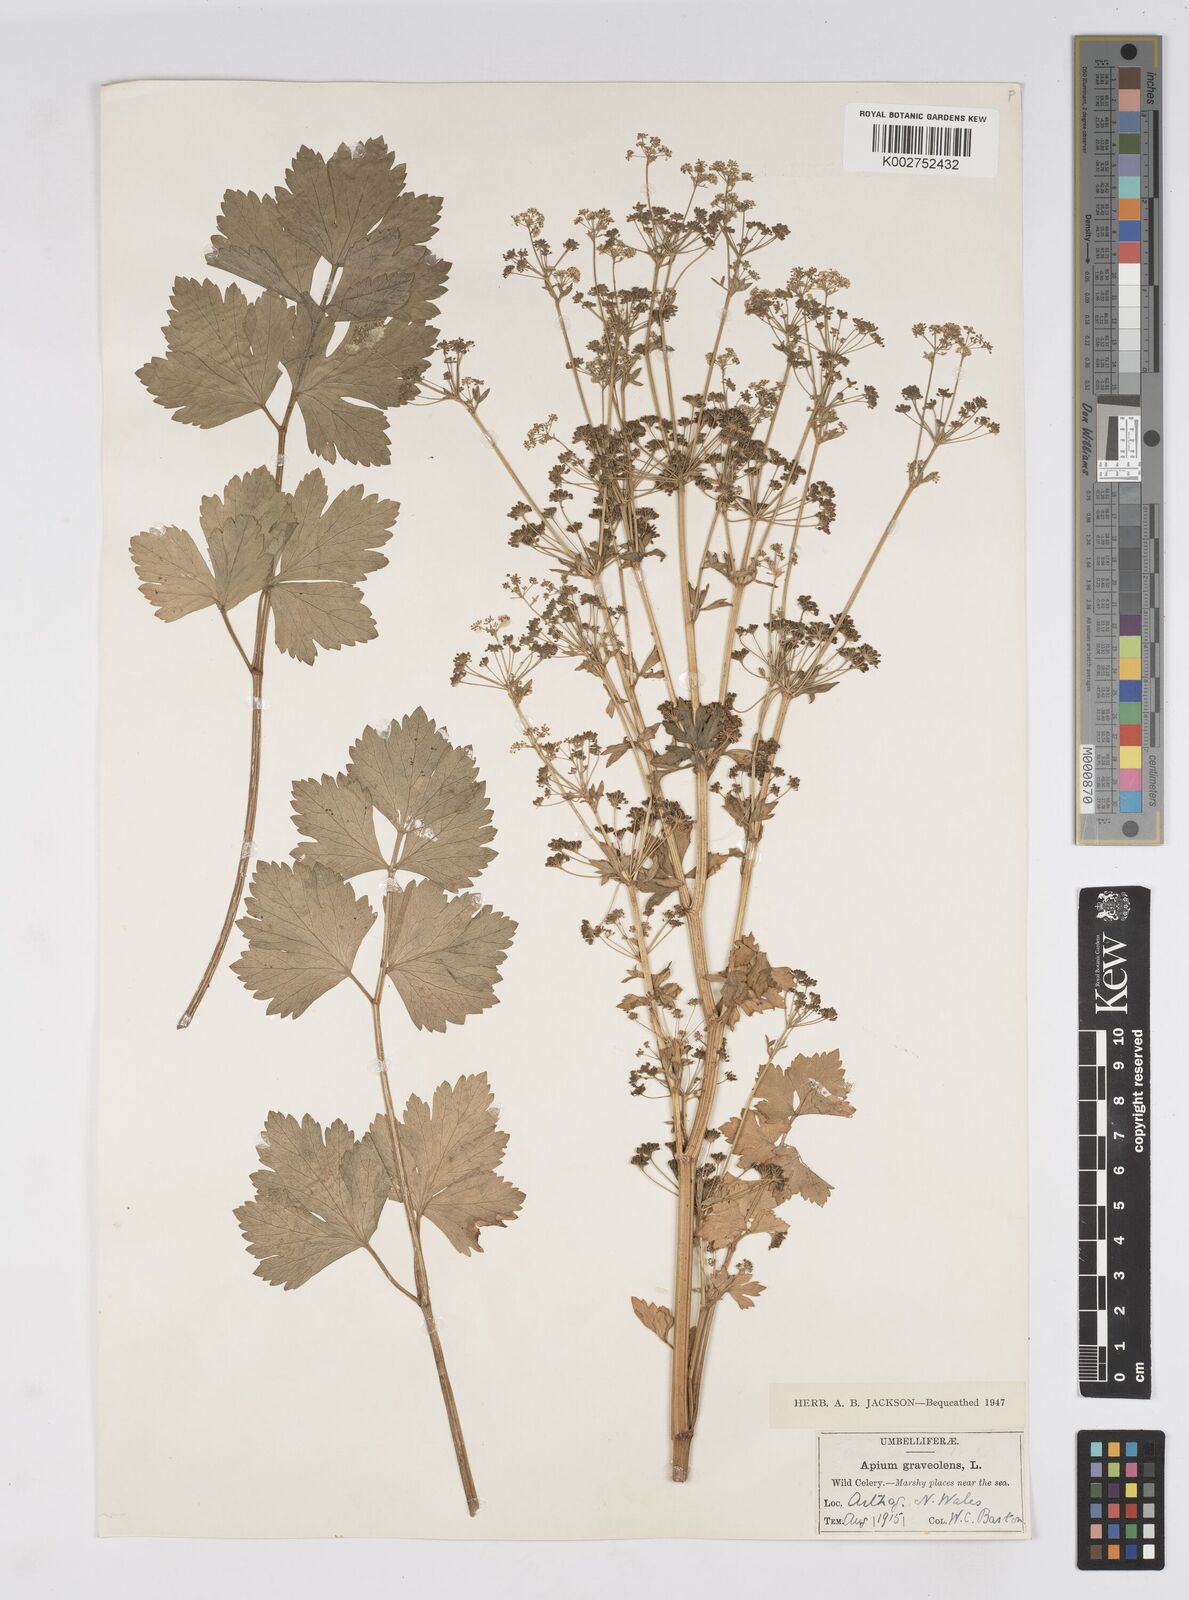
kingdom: Plantae
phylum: Tracheophyta
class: Magnoliopsida
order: Apiales
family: Apiaceae
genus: Apium
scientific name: Apium graveolens
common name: Wild celery
